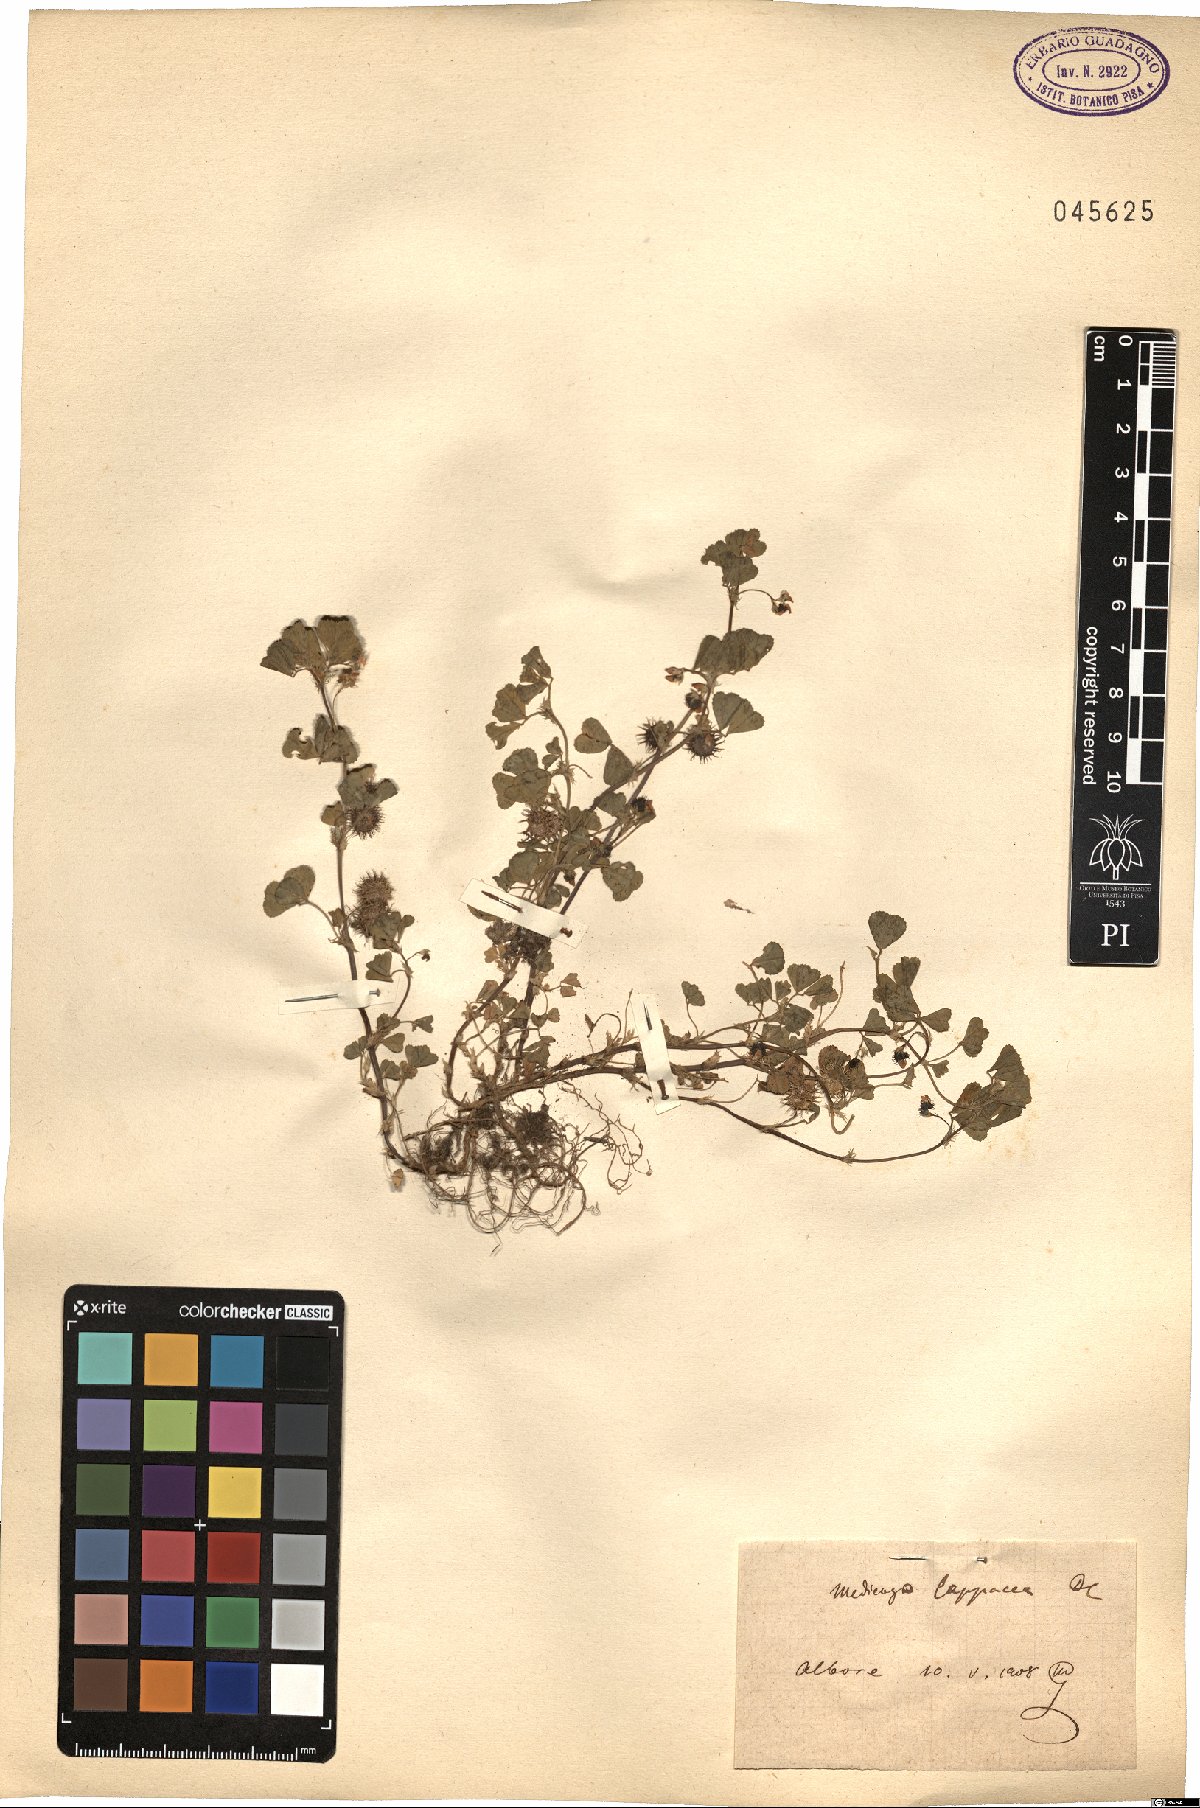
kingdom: Plantae
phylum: Tracheophyta
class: Magnoliopsida
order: Fabales
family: Fabaceae
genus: Medicago
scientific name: Medicago polymorpha
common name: Burclover
